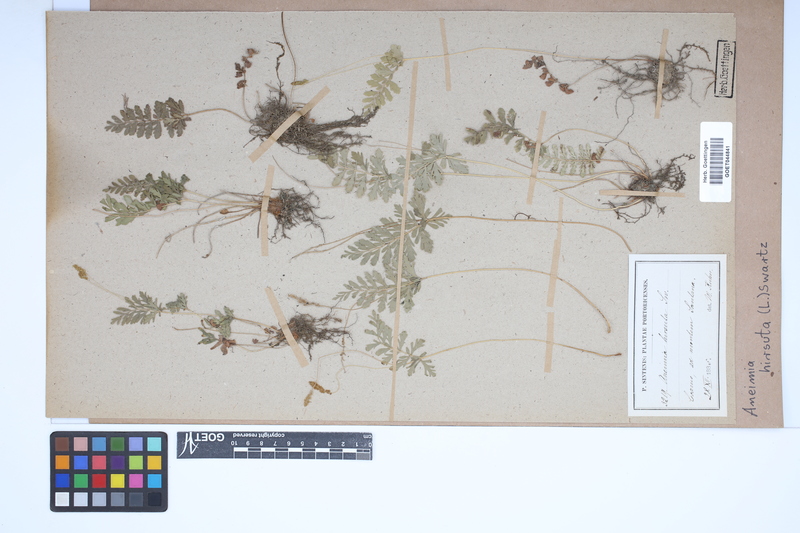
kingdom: Plantae
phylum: Tracheophyta
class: Polypodiopsida
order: Schizaeales
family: Anemiaceae
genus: Anemia
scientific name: Anemia hirsuta
